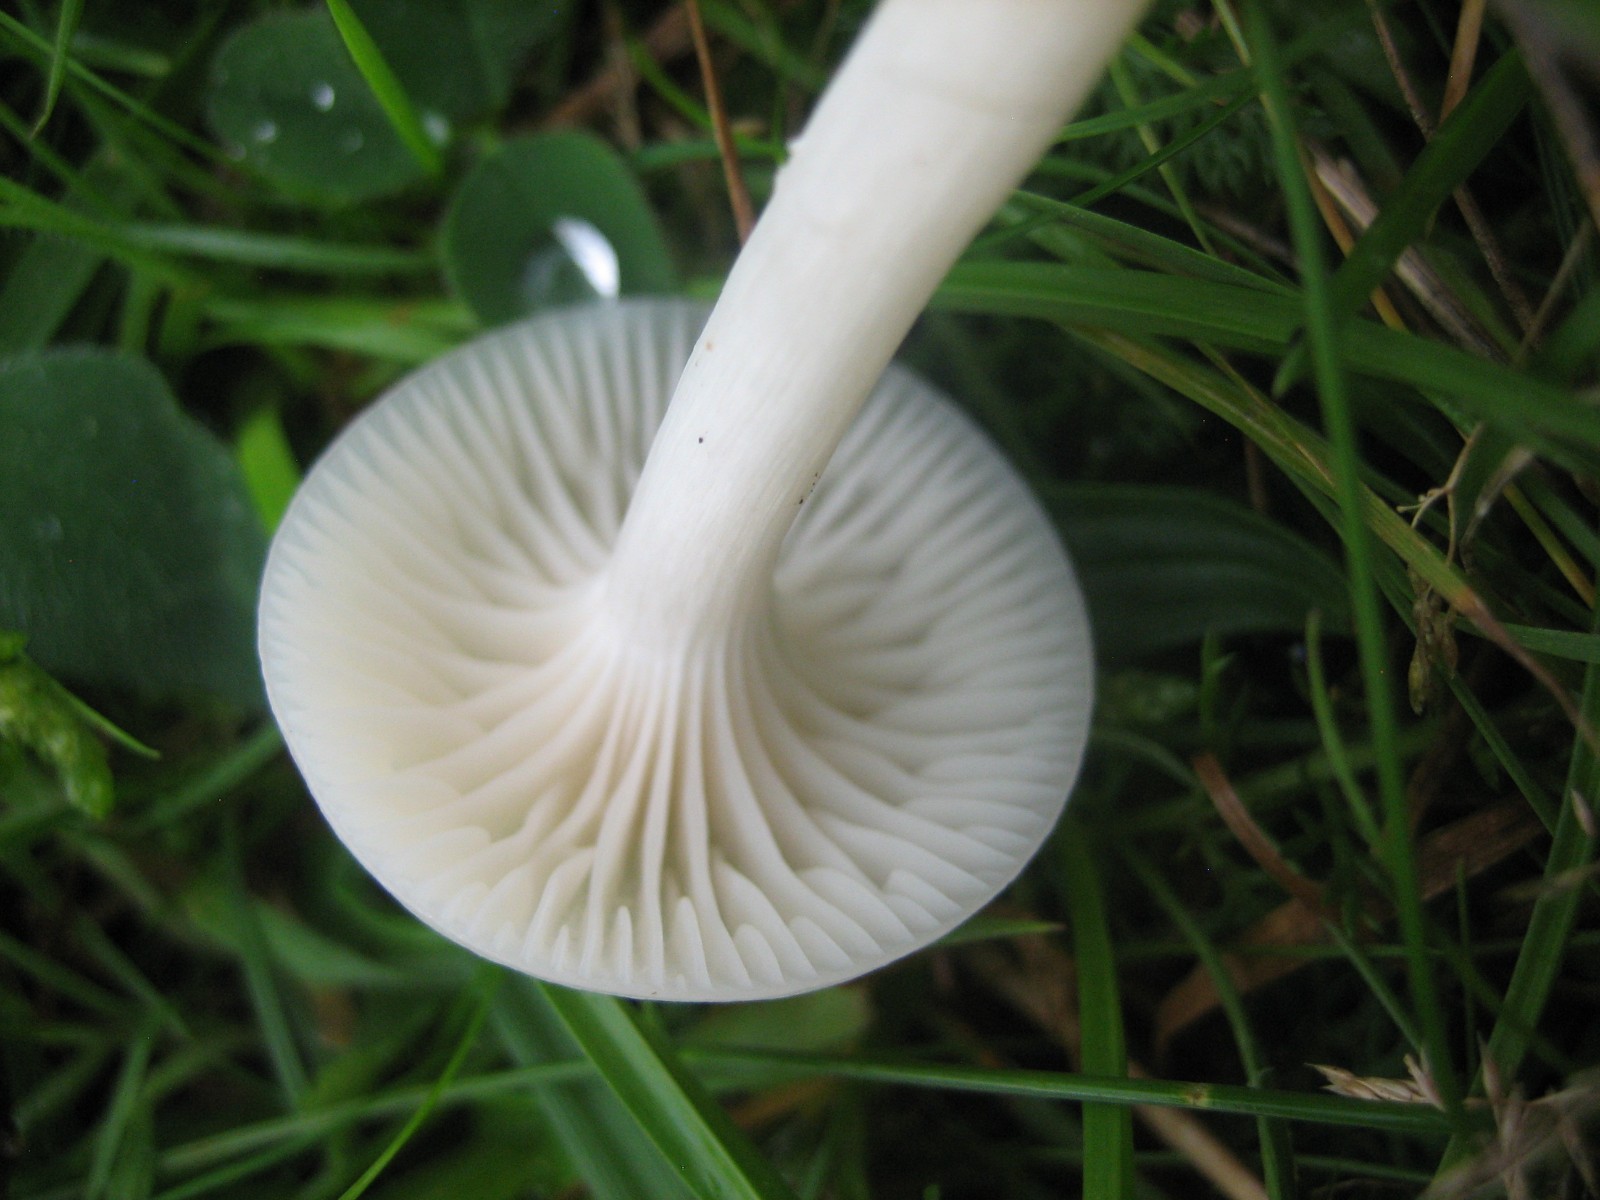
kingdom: Fungi
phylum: Basidiomycota
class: Agaricomycetes
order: Agaricales
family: Hygrophoraceae
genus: Cuphophyllus
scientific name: Cuphophyllus virgineus
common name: snehvid vokshat
